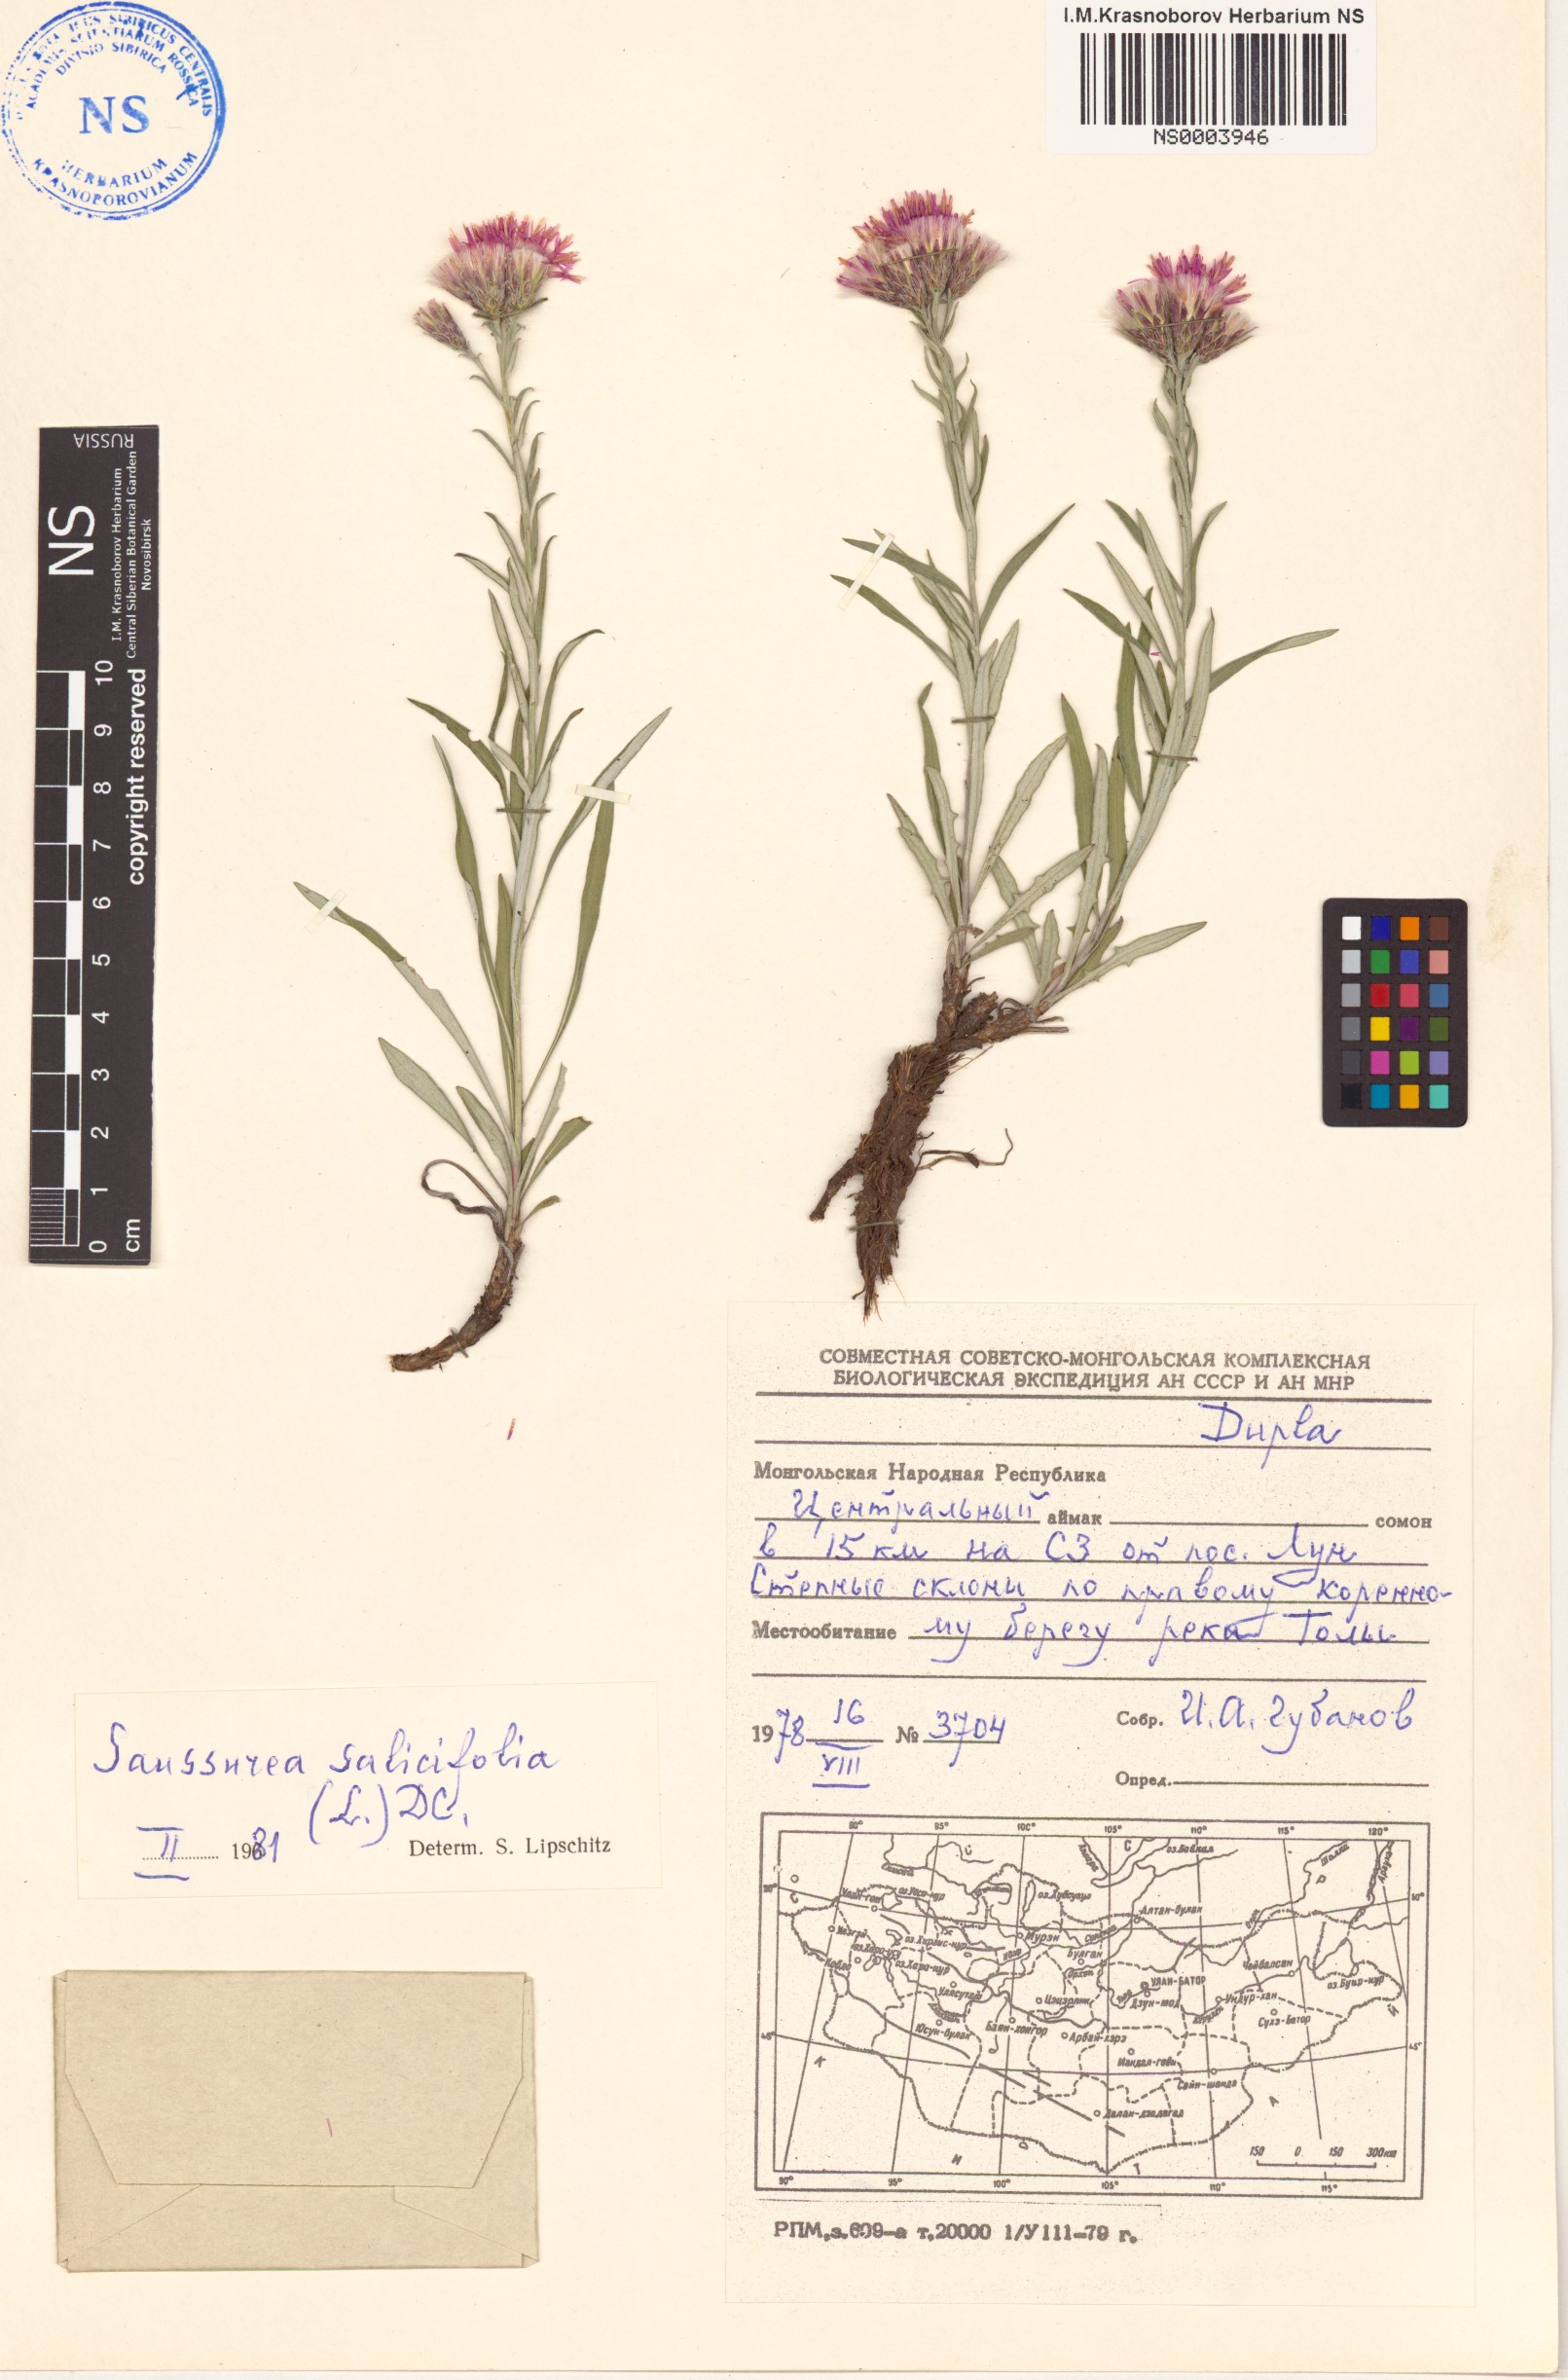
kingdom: Plantae
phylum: Tracheophyta
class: Magnoliopsida
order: Asterales
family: Asteraceae
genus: Saussurea
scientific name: Saussurea salicifolia
